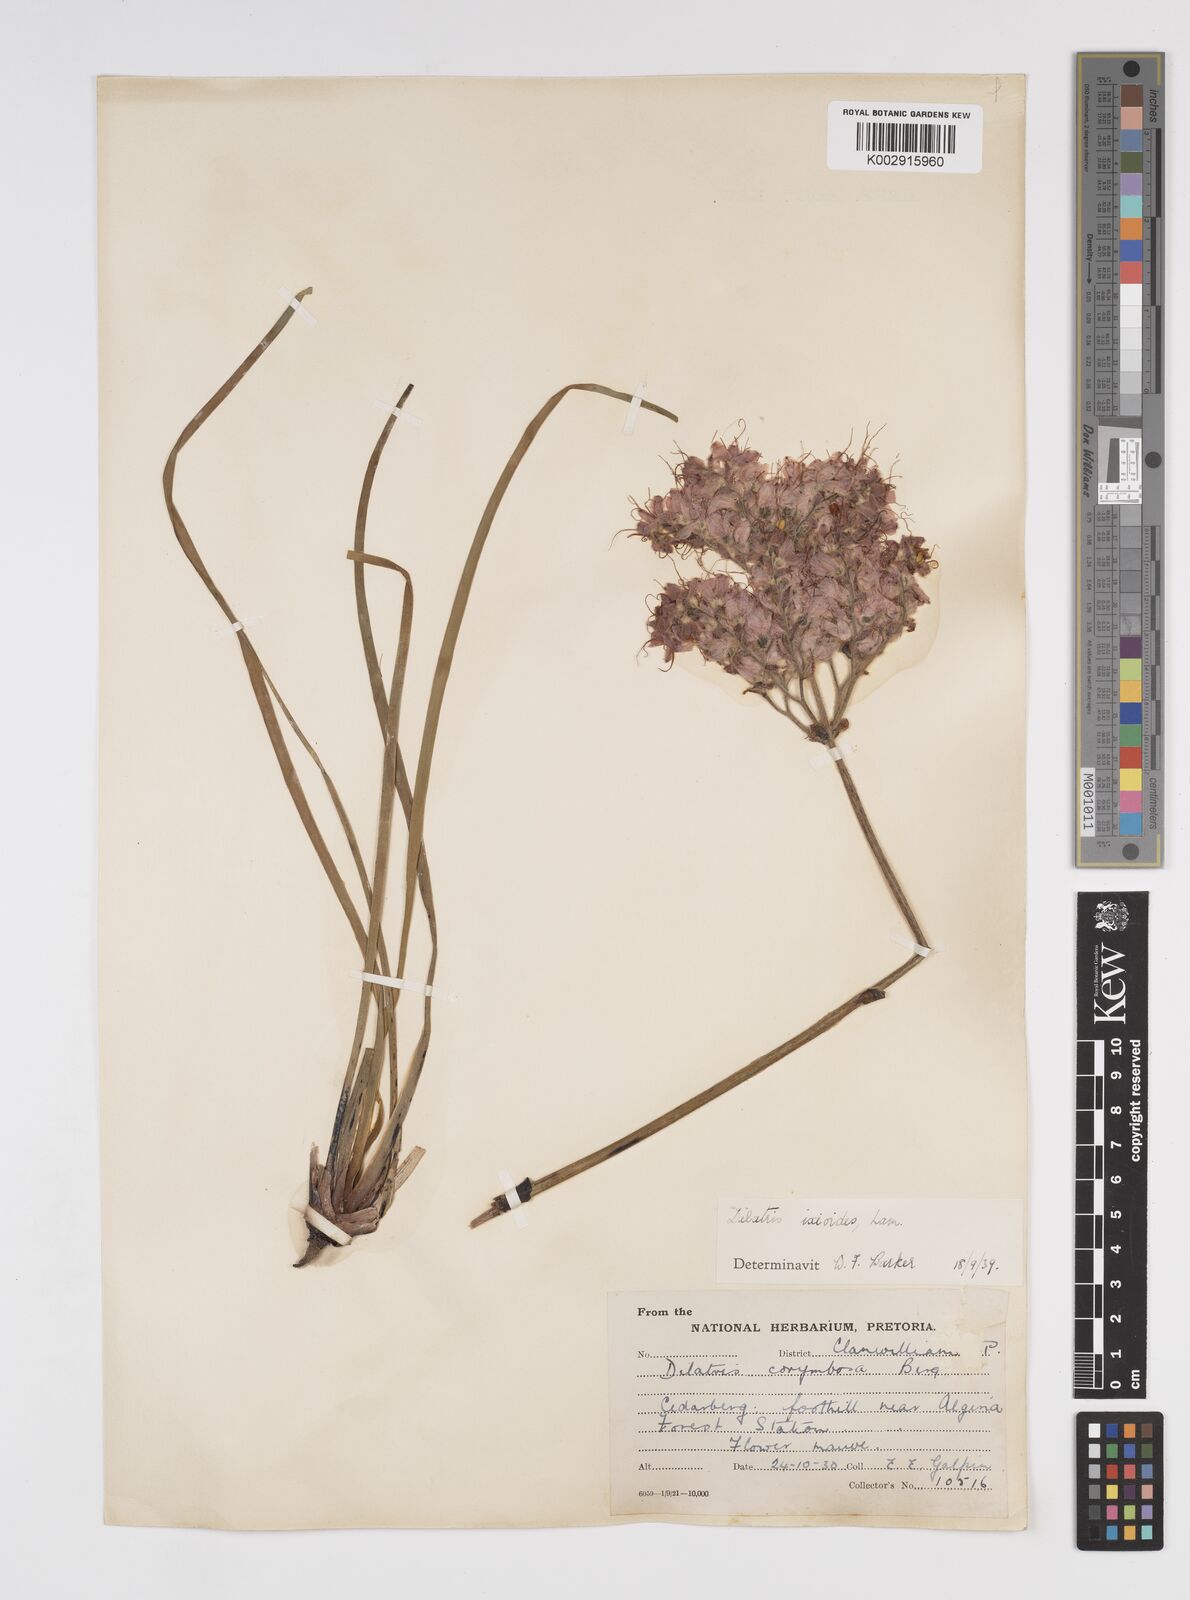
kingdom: Plantae
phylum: Tracheophyta
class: Liliopsida
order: Commelinales
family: Haemodoraceae
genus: Dilatris
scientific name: Dilatris ixioides
